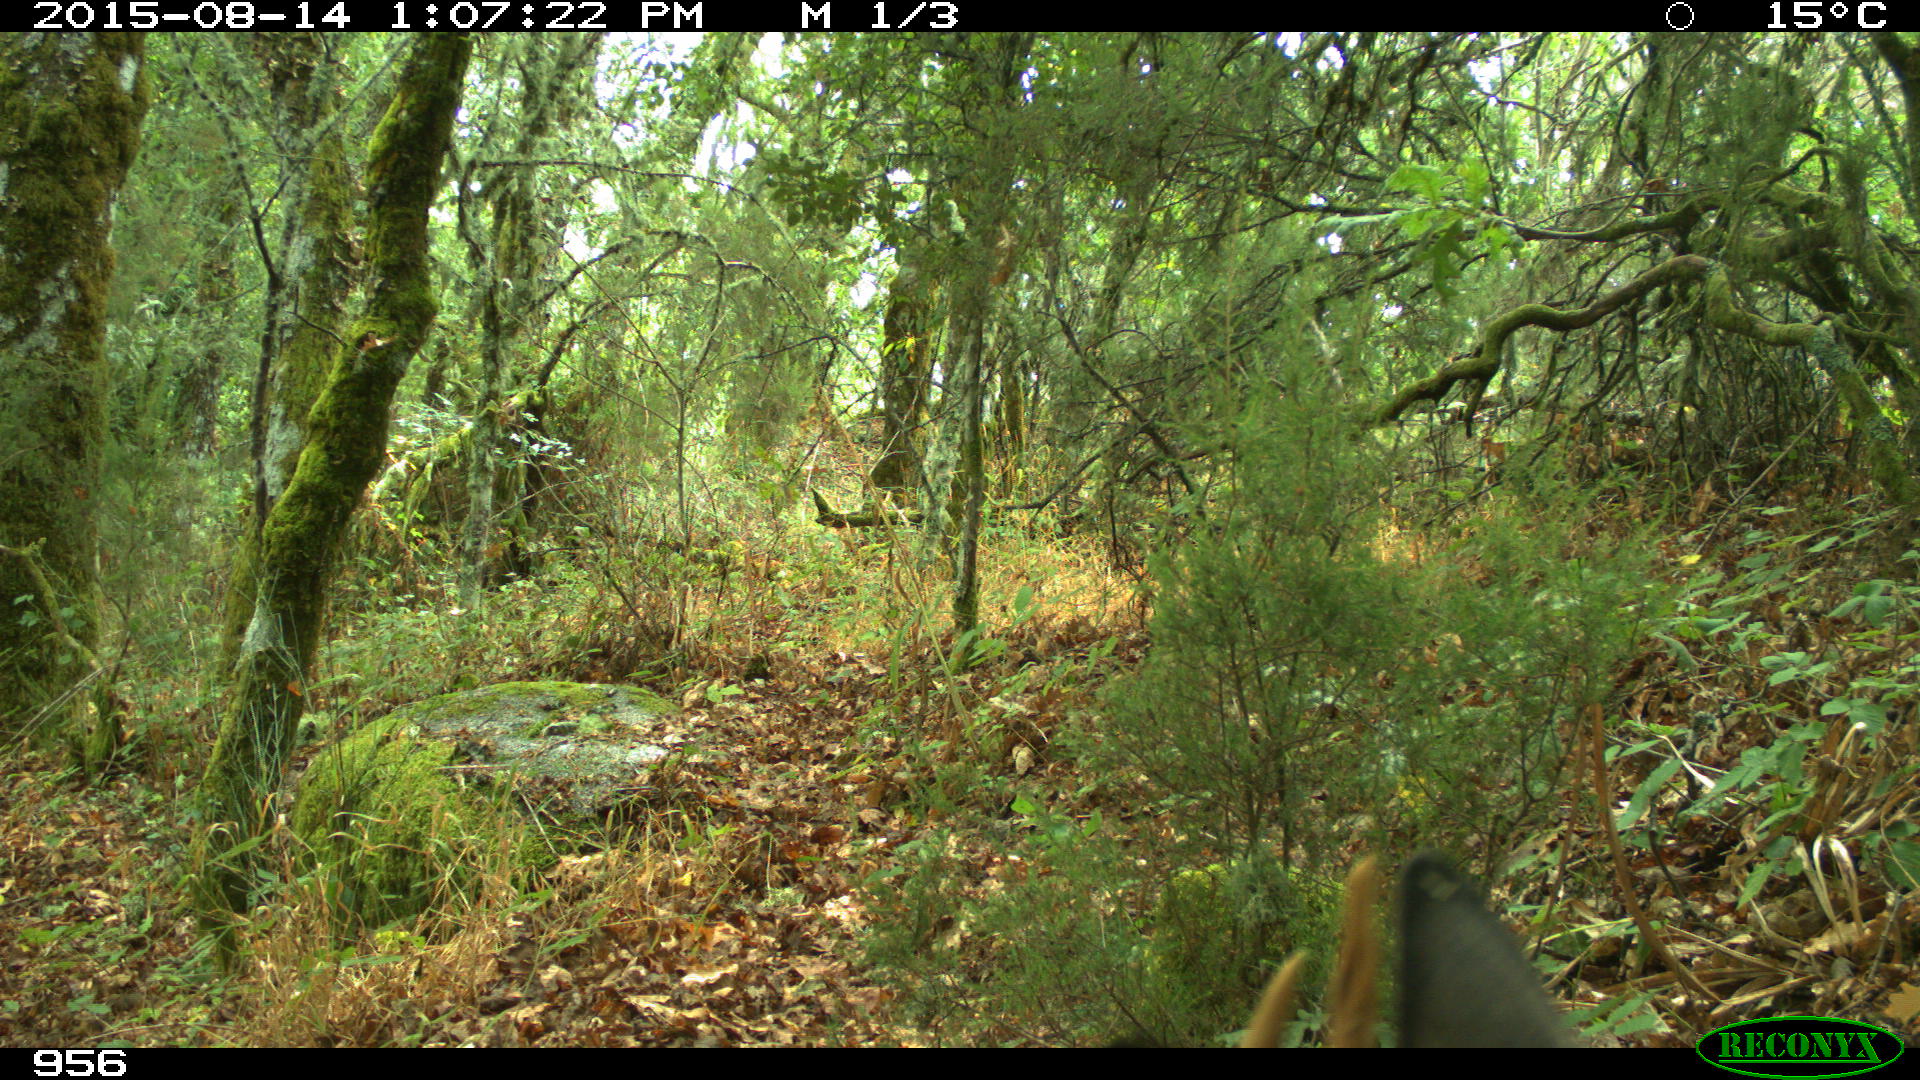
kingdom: Animalia
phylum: Chordata
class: Mammalia
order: Artiodactyla
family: Cervidae
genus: Capreolus
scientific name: Capreolus capreolus
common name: Western roe deer
